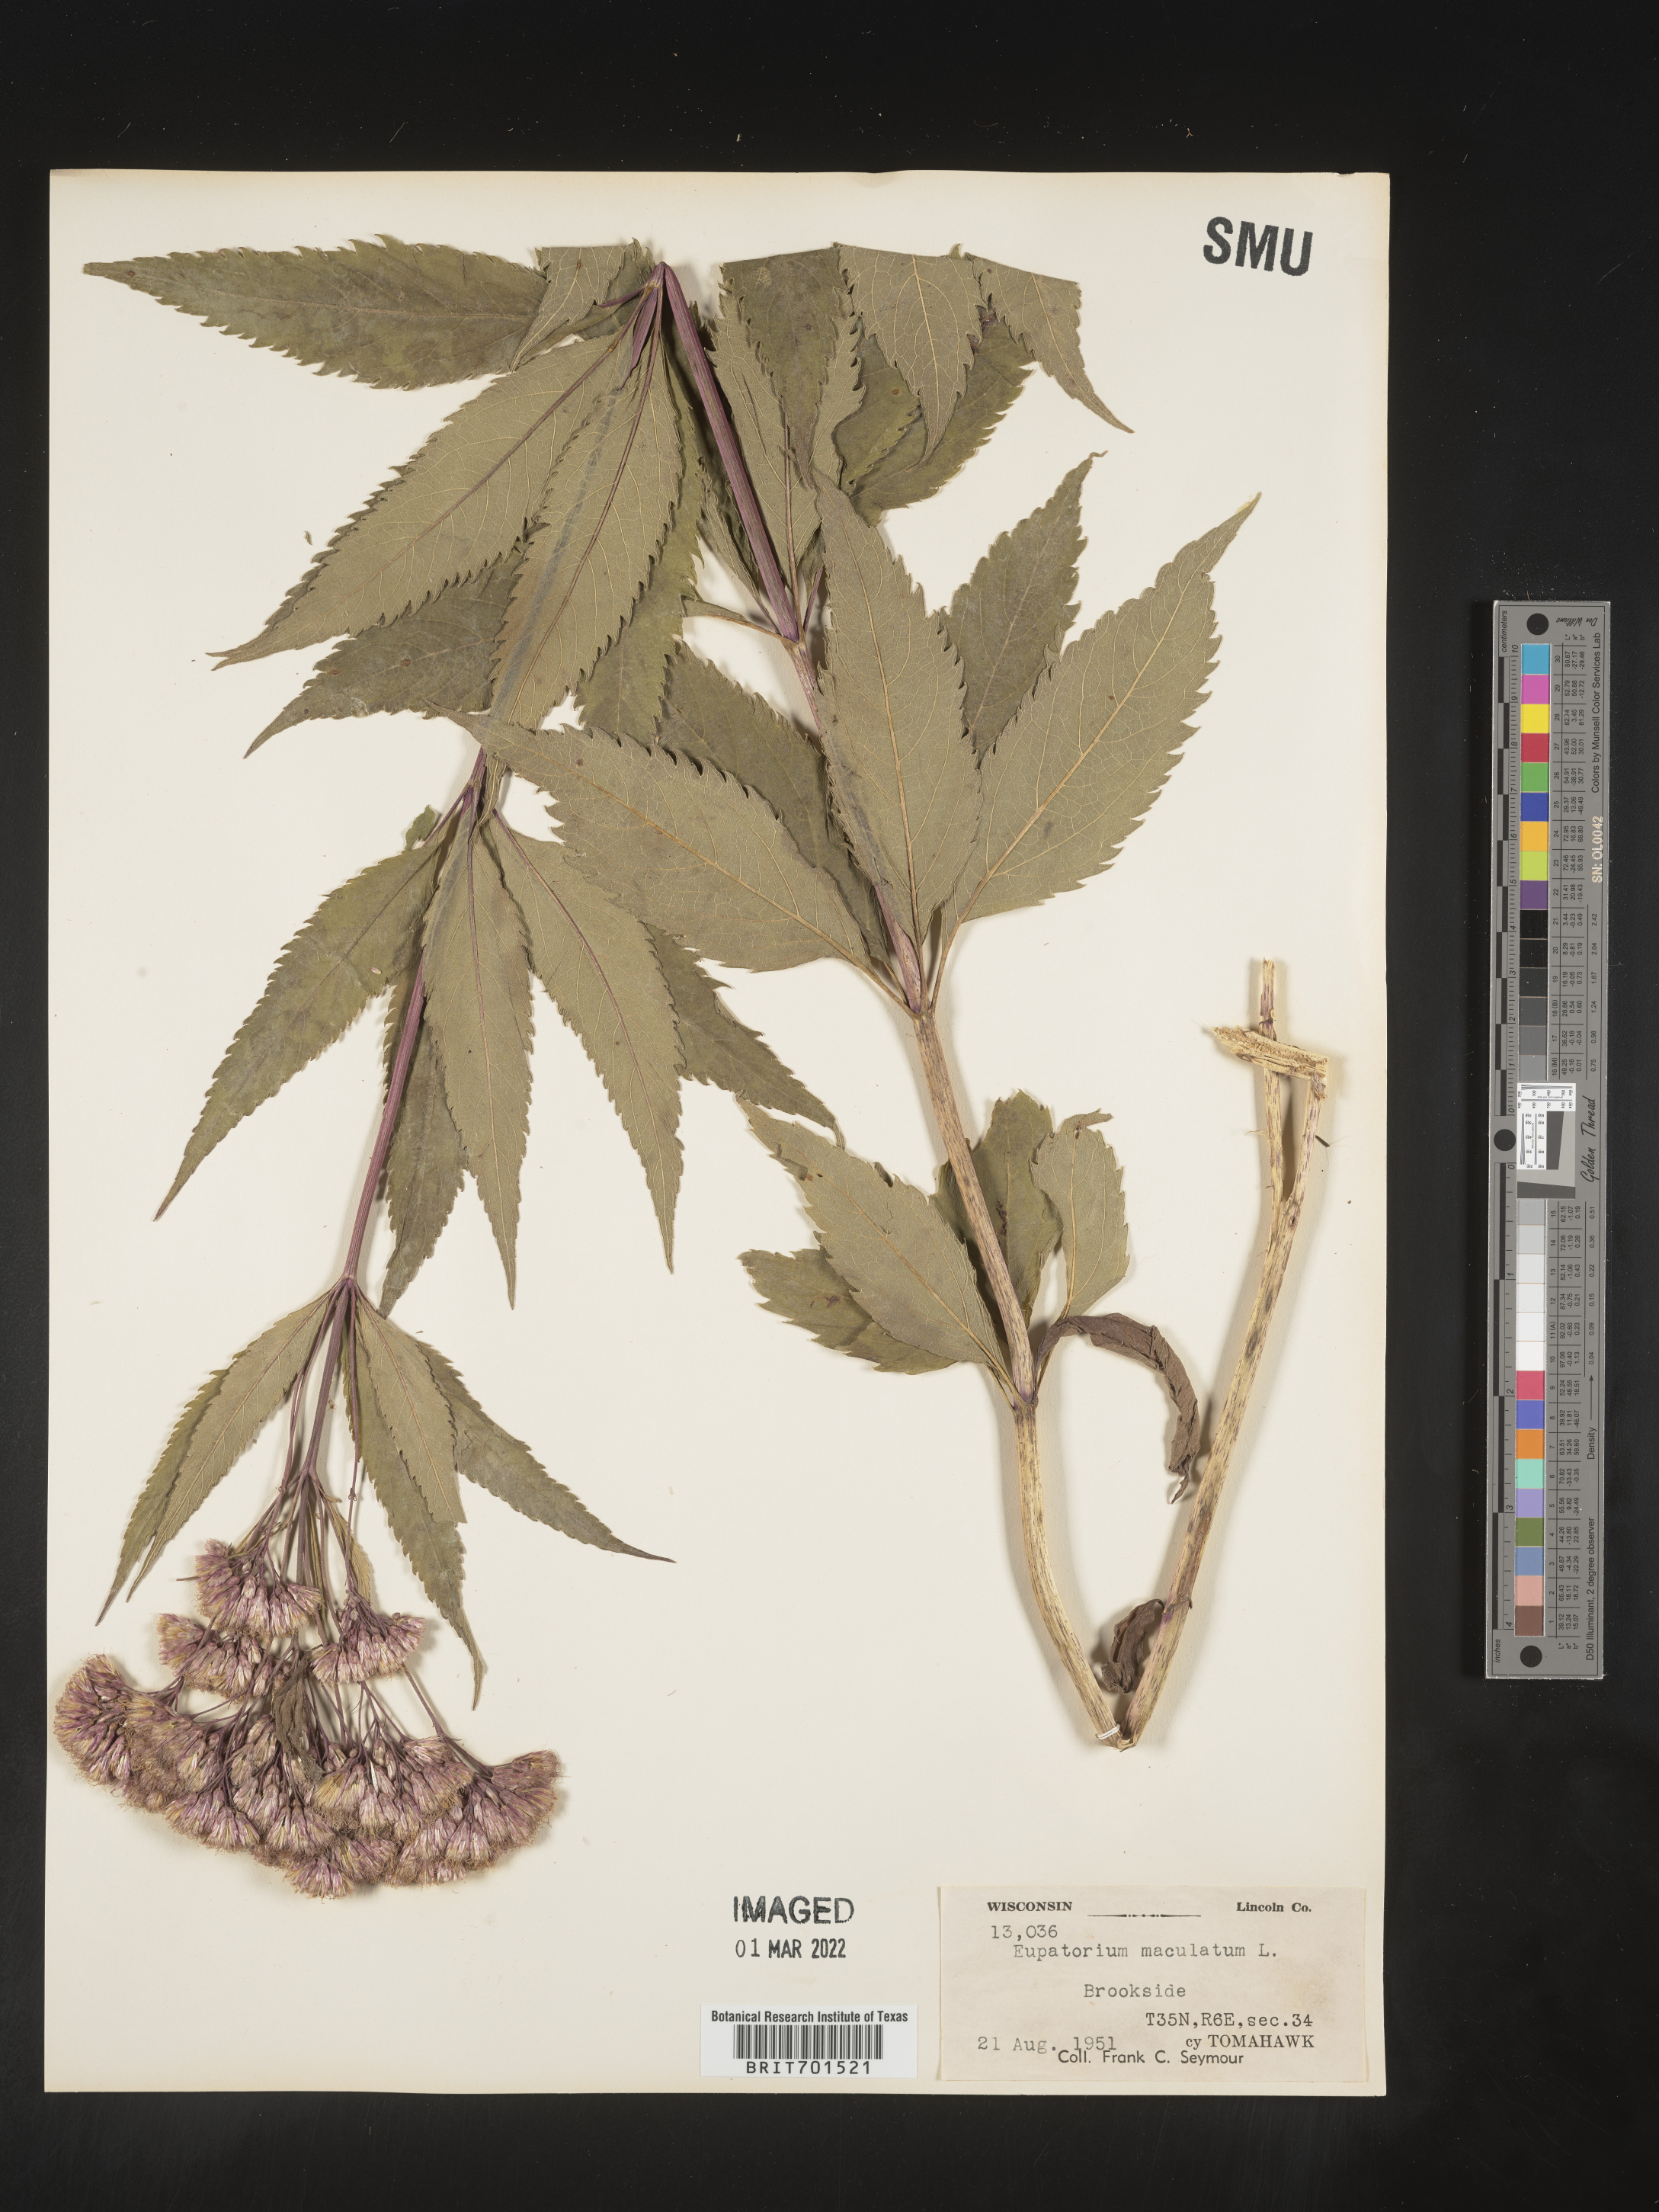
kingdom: Plantae
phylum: Tracheophyta
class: Magnoliopsida
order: Asterales
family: Asteraceae
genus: Eutrochium
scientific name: Eutrochium maculatum
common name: Spotted joe pye weed
